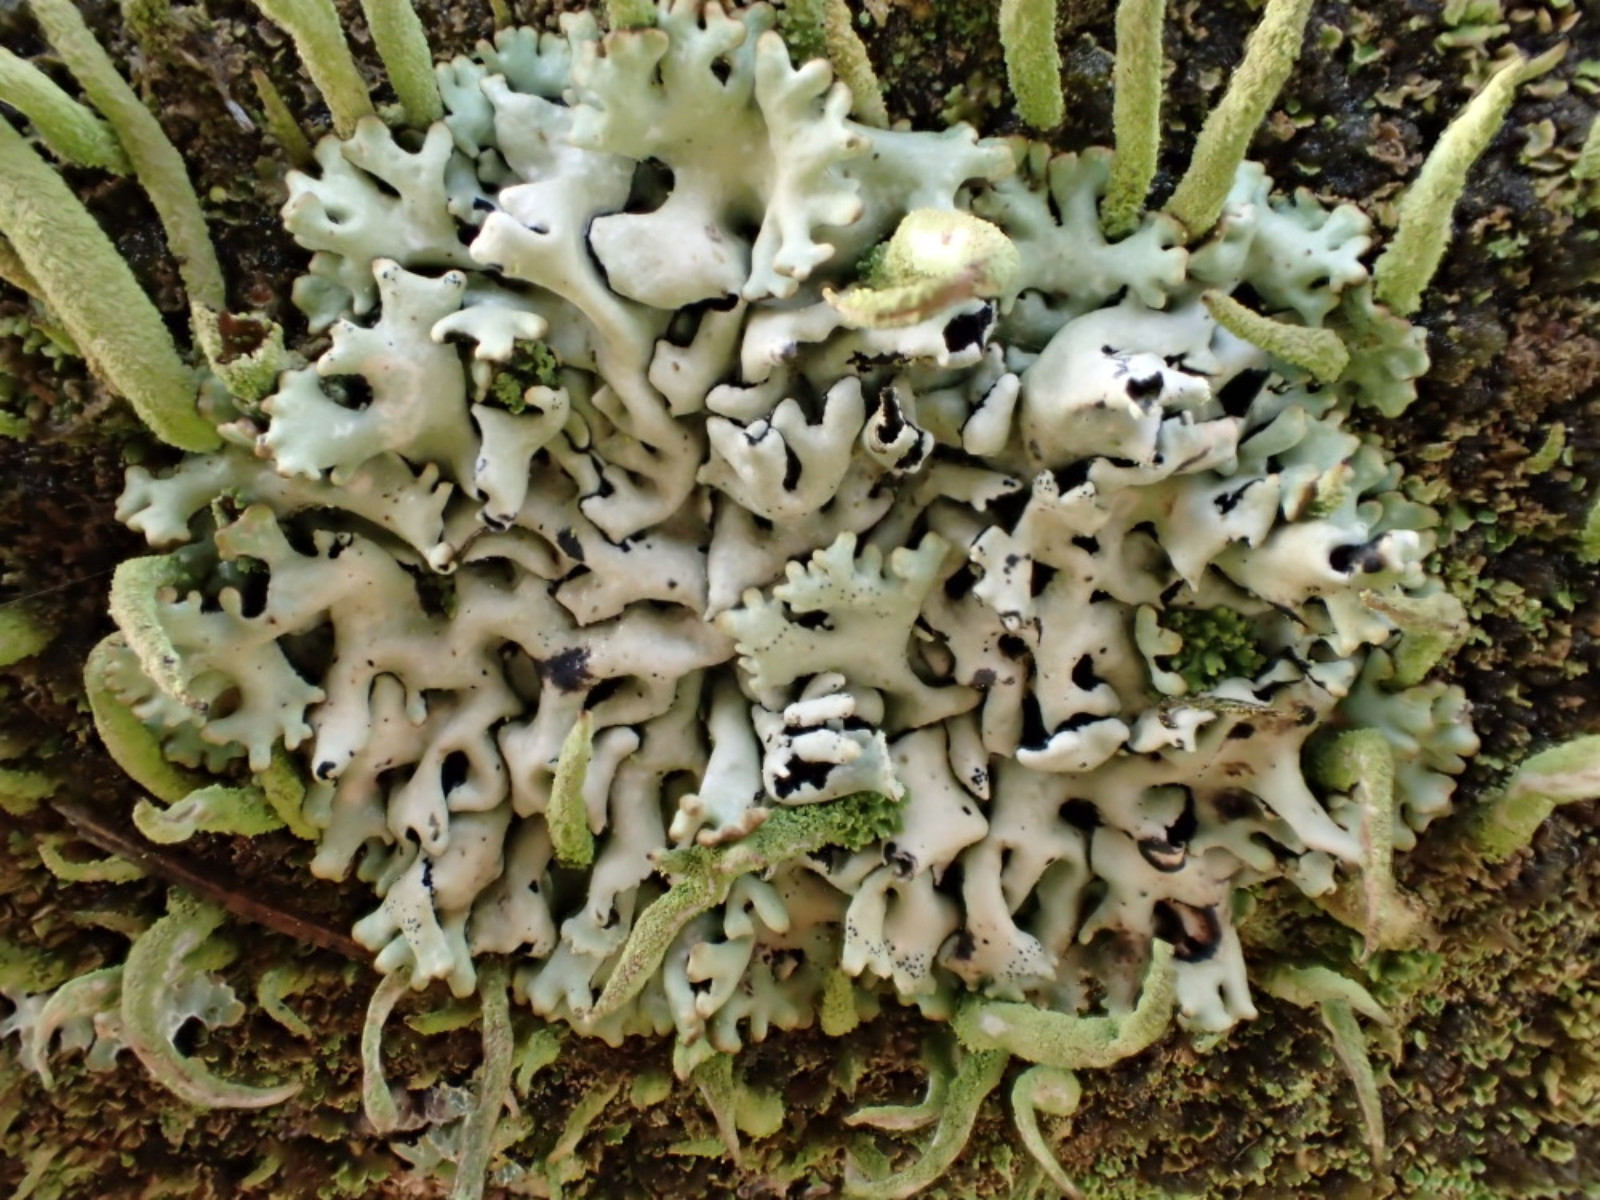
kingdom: Fungi
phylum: Ascomycota
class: Lecanoromycetes
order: Lecanorales
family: Parmeliaceae
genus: Hypogymnia
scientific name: Hypogymnia physodes
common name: almindelig kvistlav
